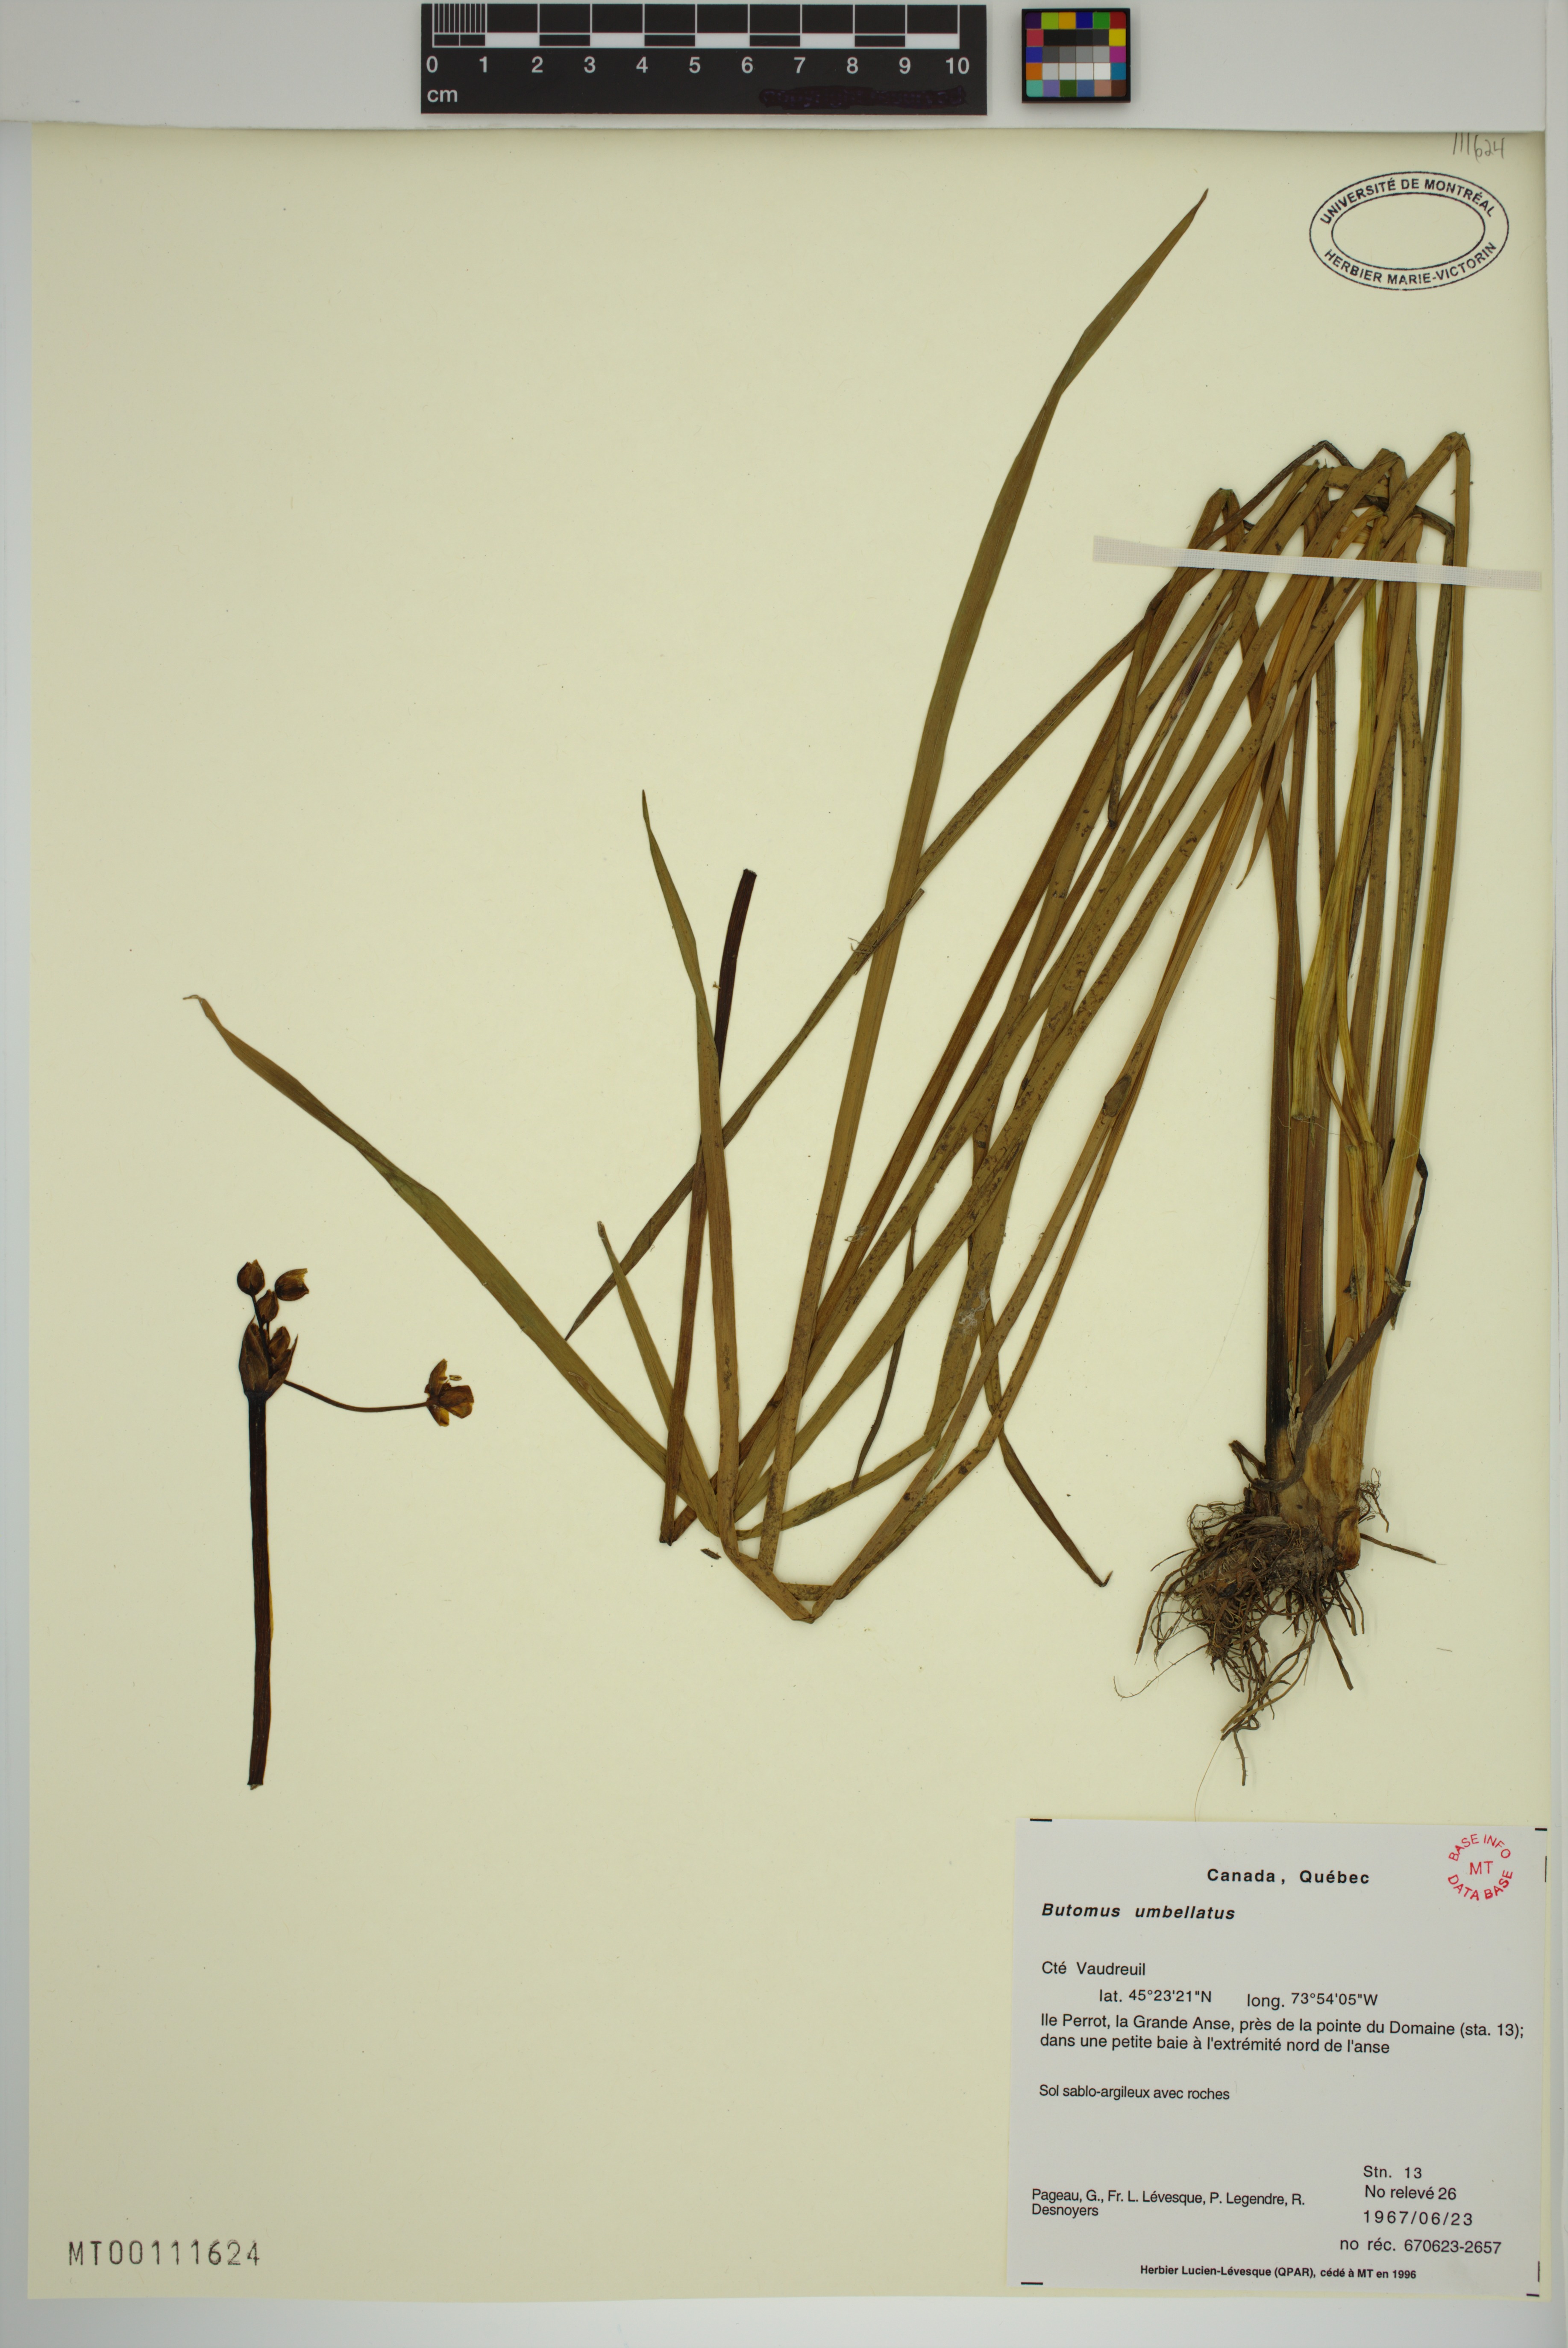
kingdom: Plantae
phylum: Tracheophyta
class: Liliopsida
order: Alismatales
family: Butomaceae
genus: Butomus
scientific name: Butomus umbellatus
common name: Flowering-rush
